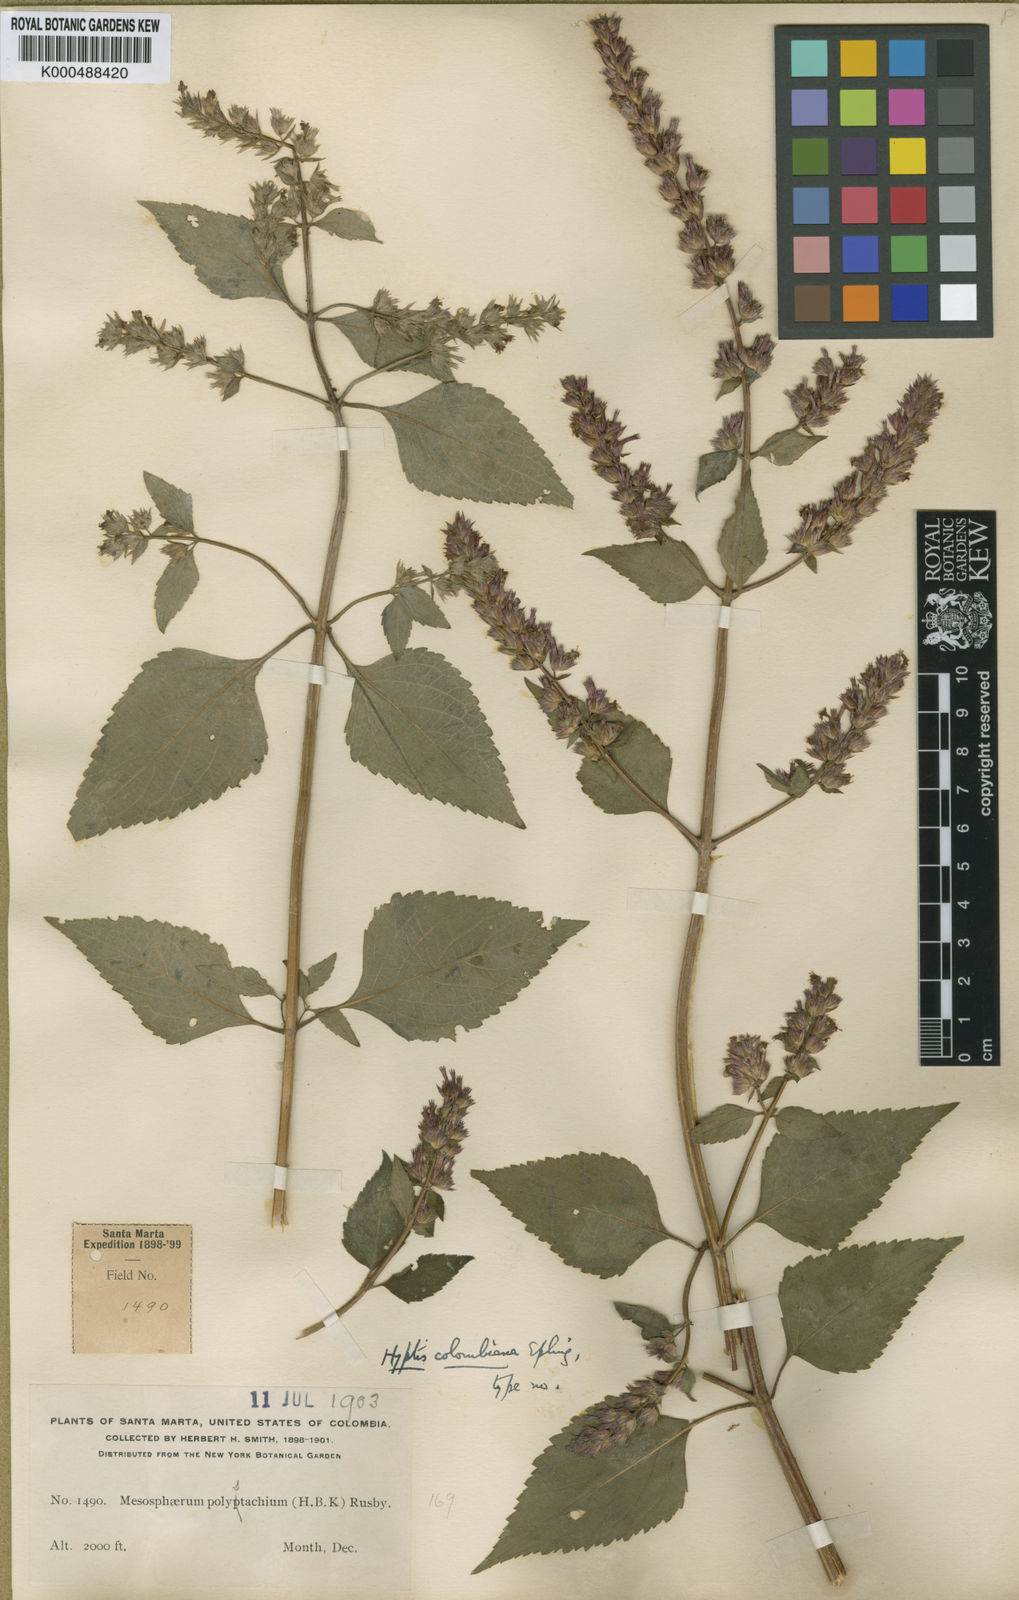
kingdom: Plantae
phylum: Tracheophyta
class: Magnoliopsida
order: Lamiales
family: Lamiaceae
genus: Cantinoa
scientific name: Cantinoa colombiana
